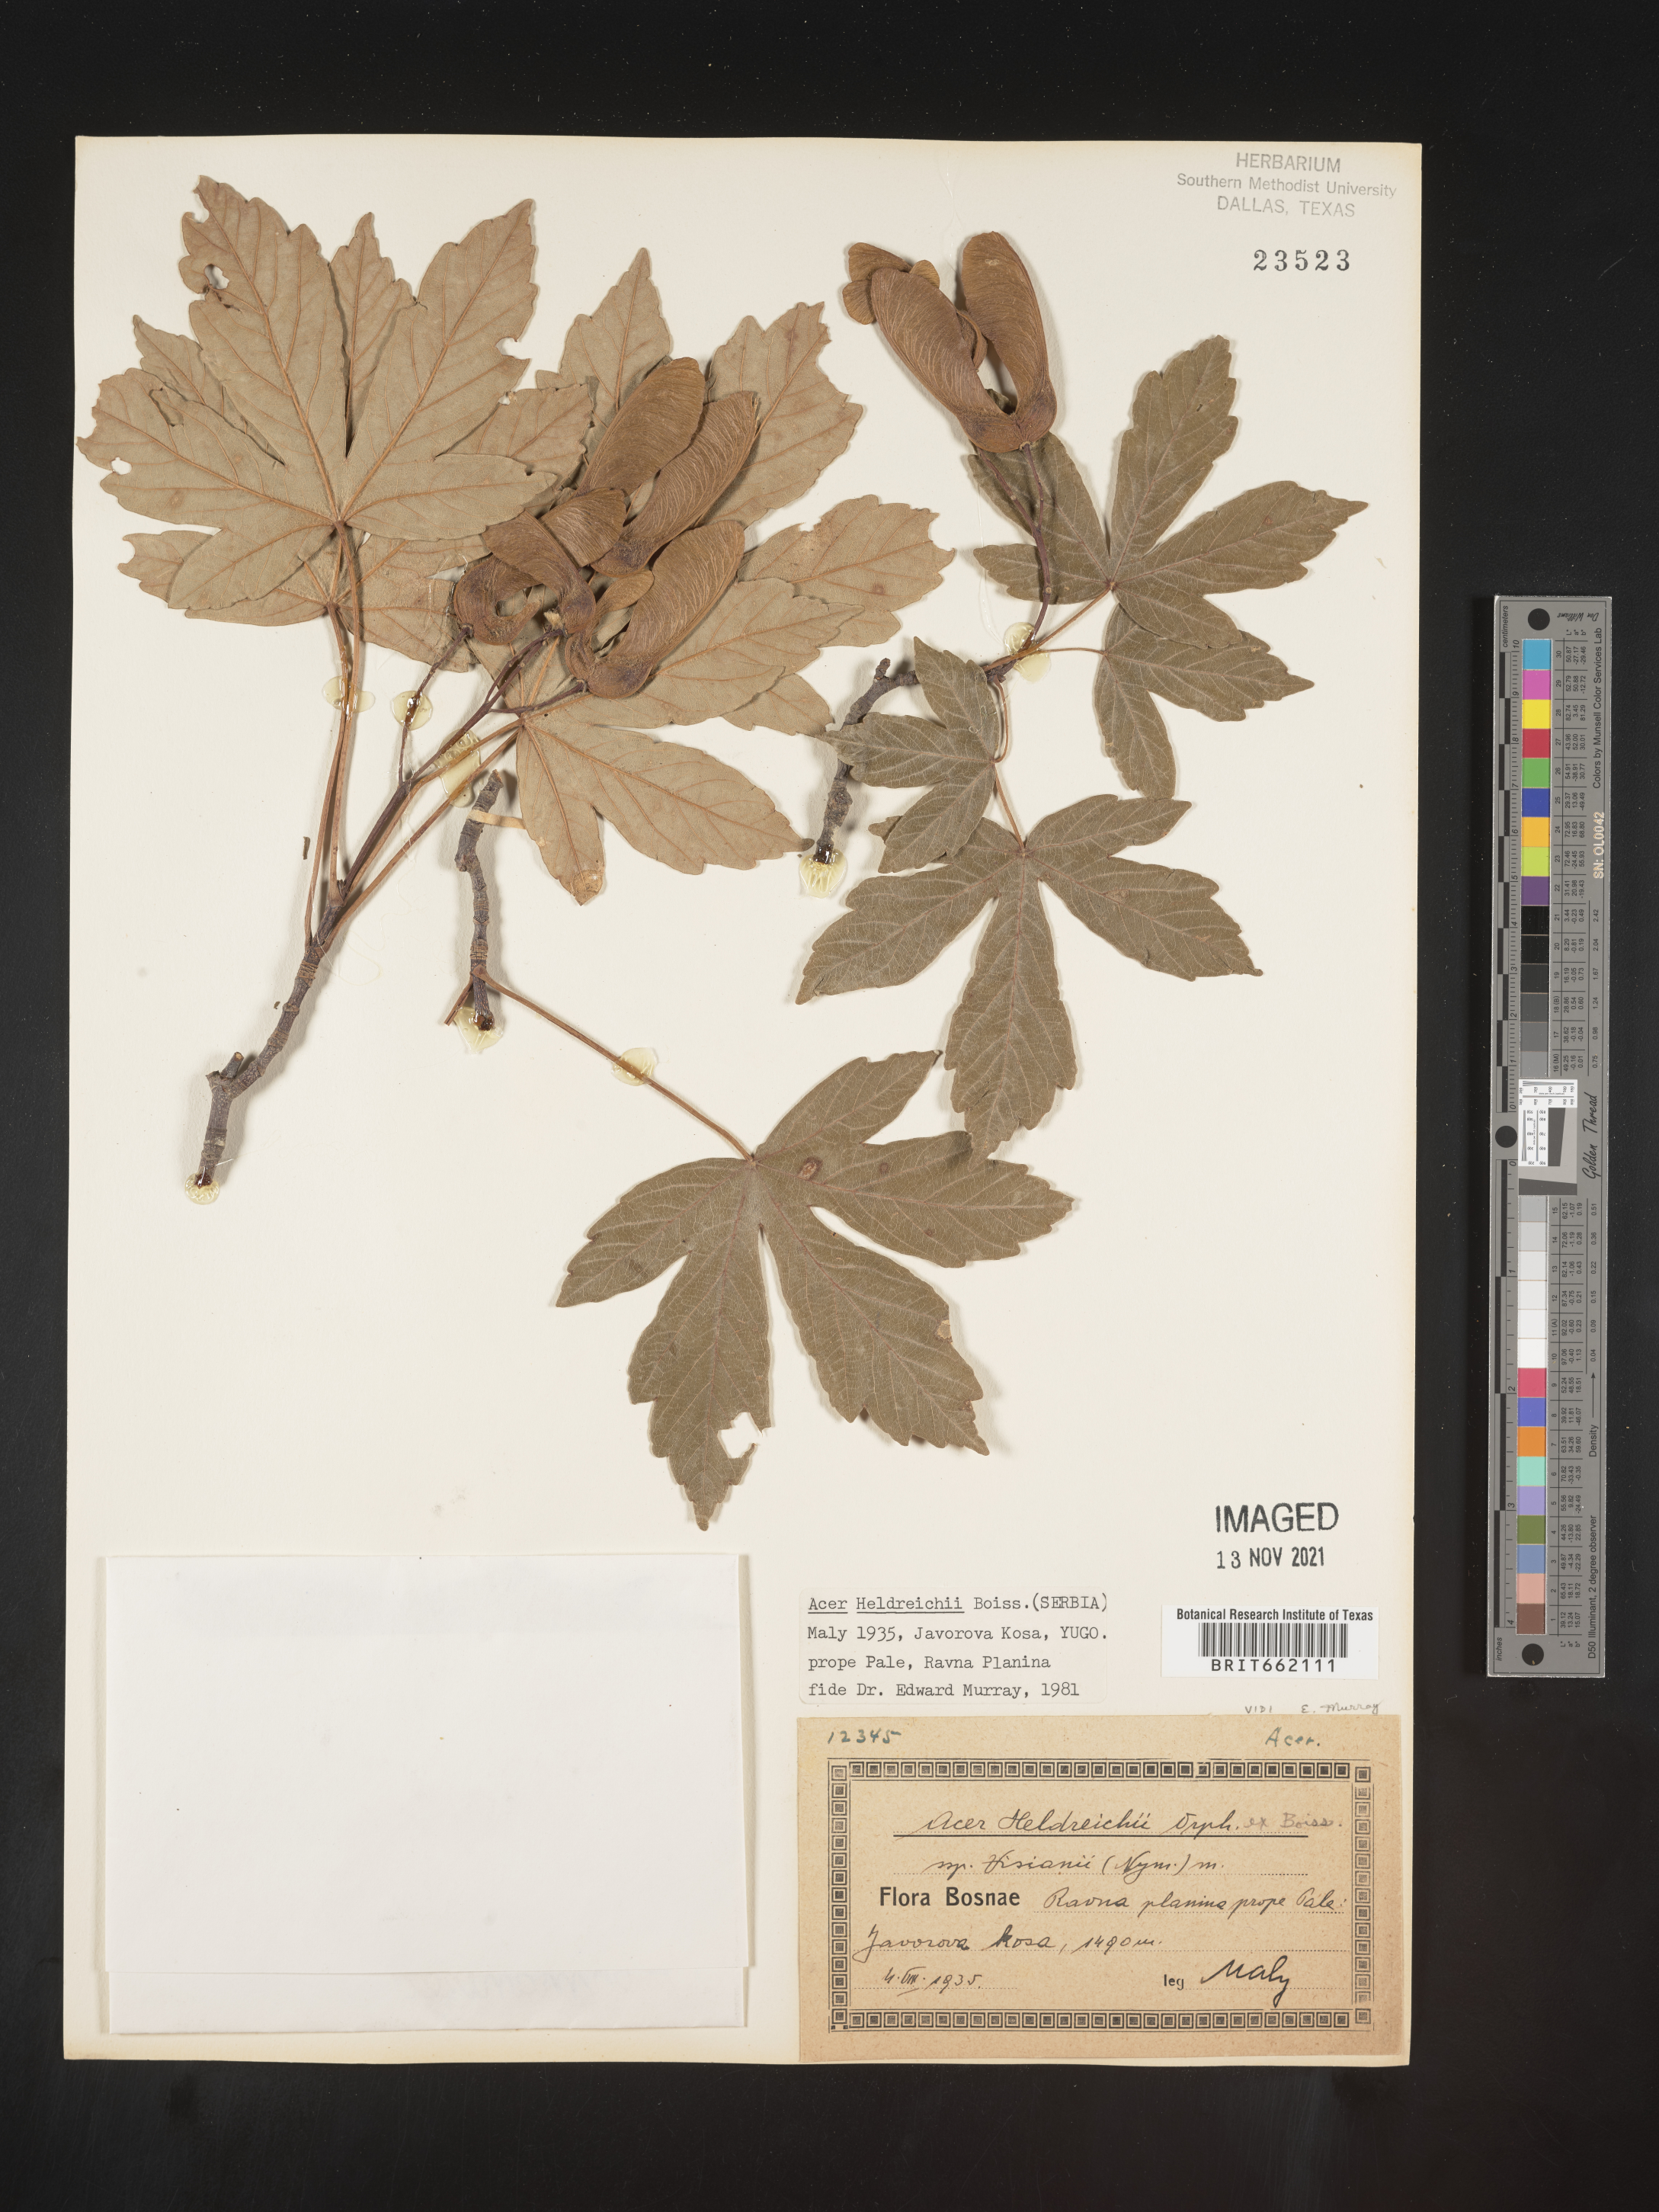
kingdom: Plantae
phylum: Tracheophyta
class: Magnoliopsida
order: Sapindales
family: Sapindaceae
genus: Acer
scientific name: Acer
